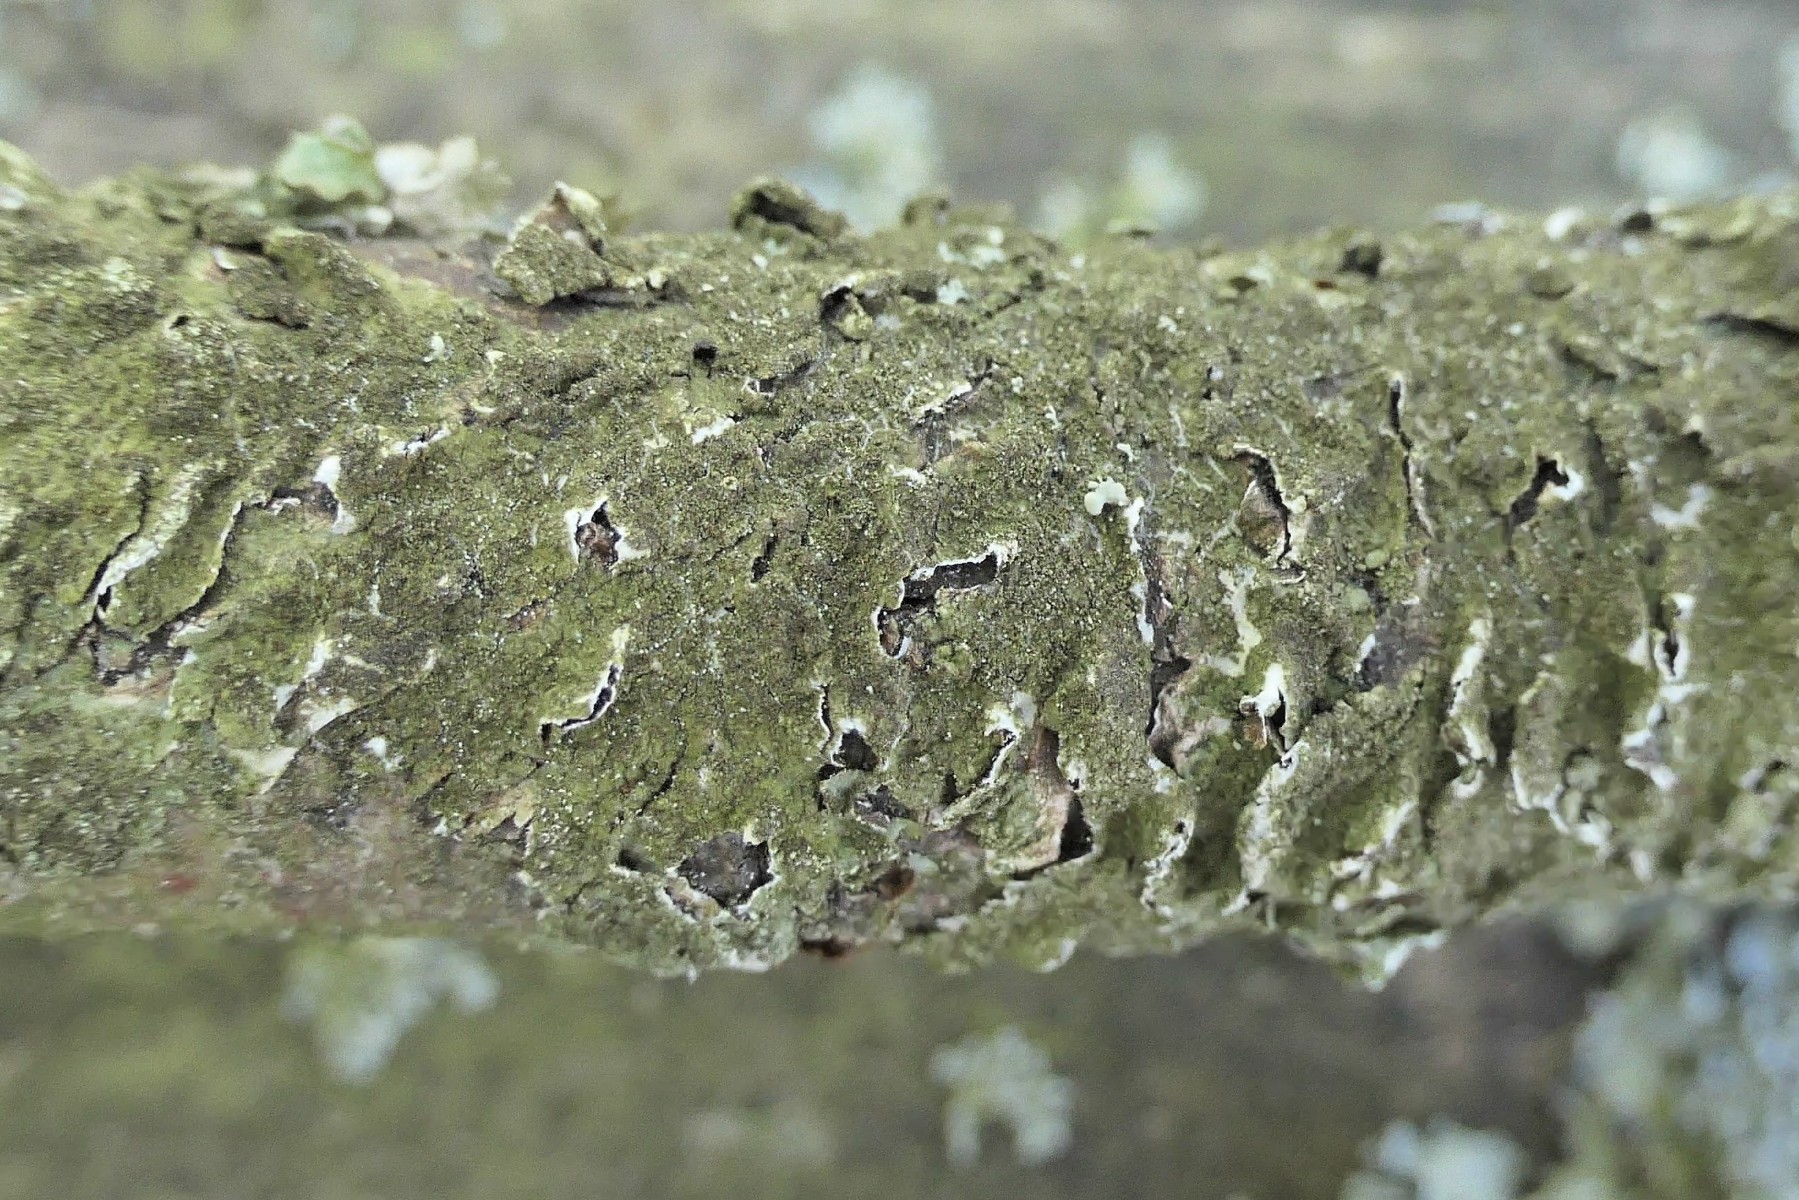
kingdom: Fungi
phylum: Ascomycota
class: Lecanoromycetes
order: Lecanorales
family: Parmeliaceae
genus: Melanelixia
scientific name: Melanelixia subaurifera
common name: guldpudret skållav
